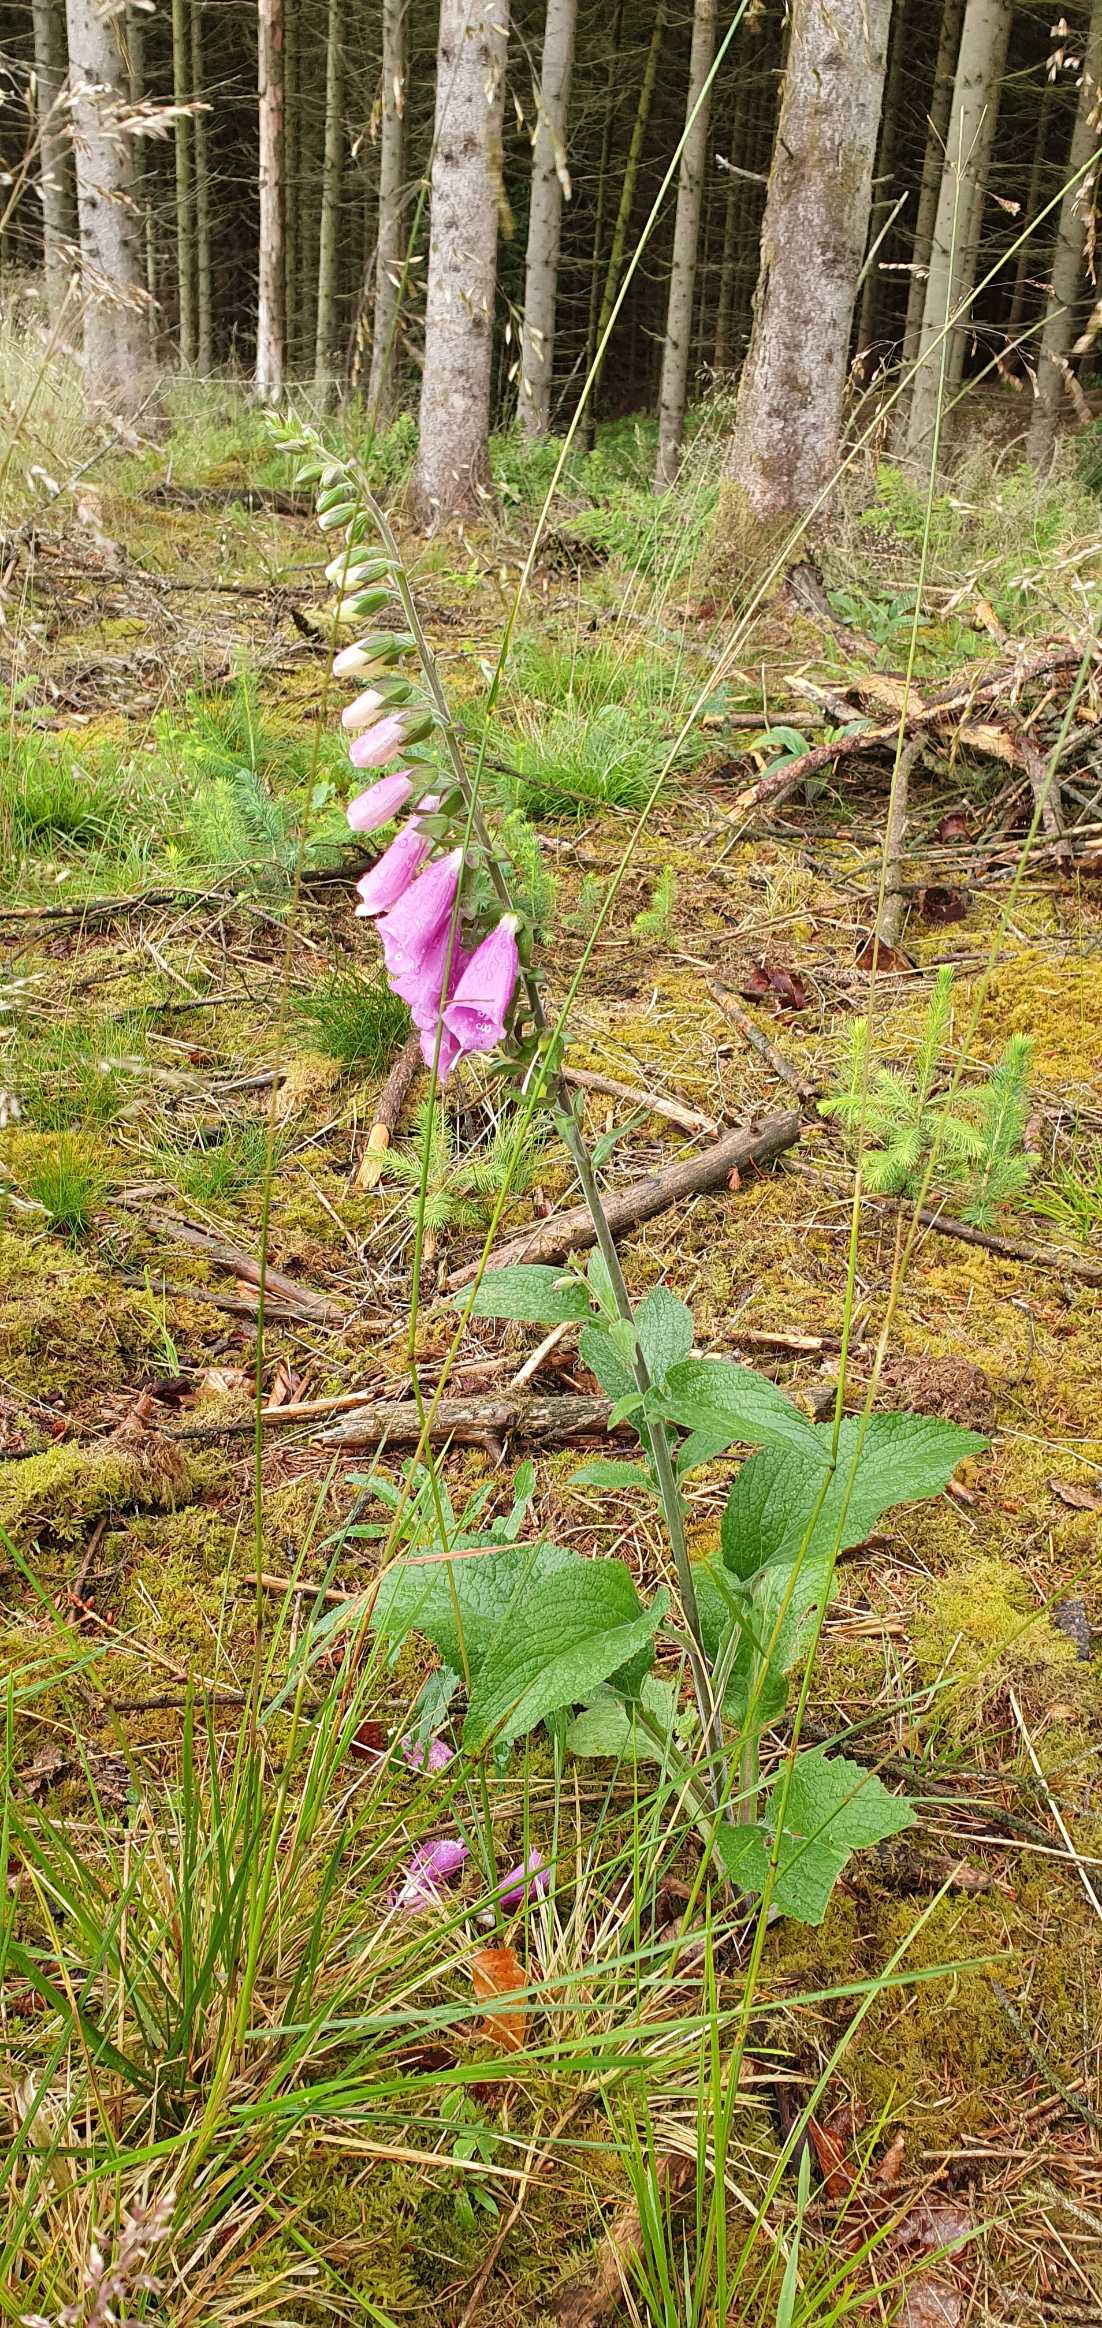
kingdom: Plantae
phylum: Tracheophyta
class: Magnoliopsida
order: Lamiales
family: Plantaginaceae
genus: Digitalis
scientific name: Digitalis purpurea
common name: Almindelig fingerbøl
